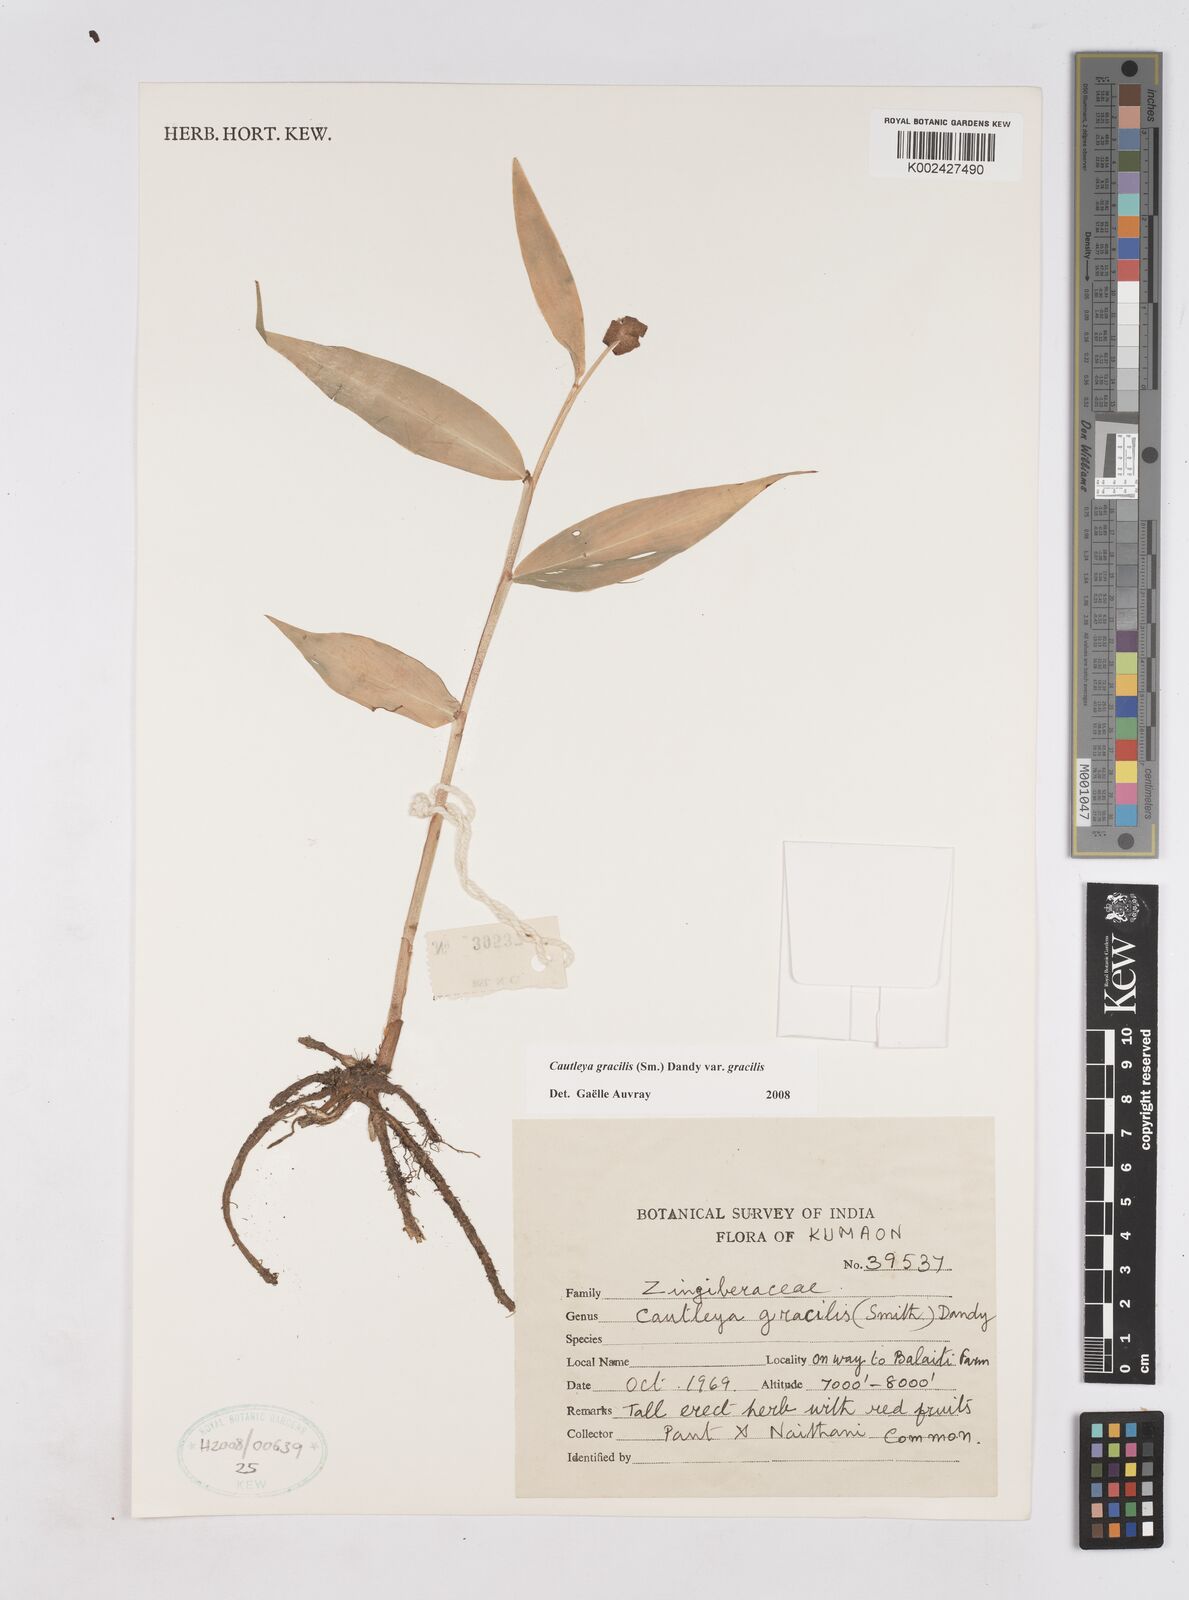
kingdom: Plantae
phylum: Tracheophyta
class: Liliopsida
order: Zingiberales
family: Zingiberaceae
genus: Cautleya
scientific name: Cautleya gracilis
